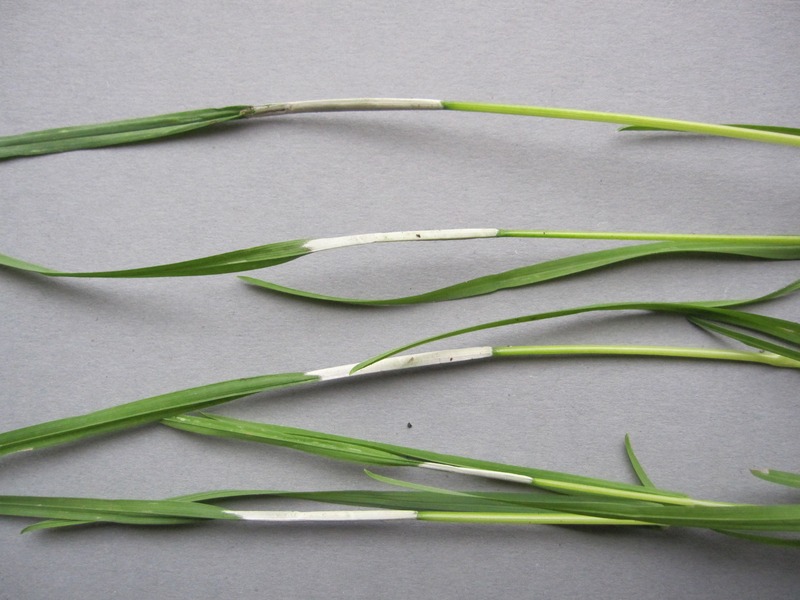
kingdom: Fungi
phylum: Ascomycota
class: Sordariomycetes
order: Hypocreales
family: Clavicipitaceae
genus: Epichloe
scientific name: Epichloe typhina
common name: Choke
